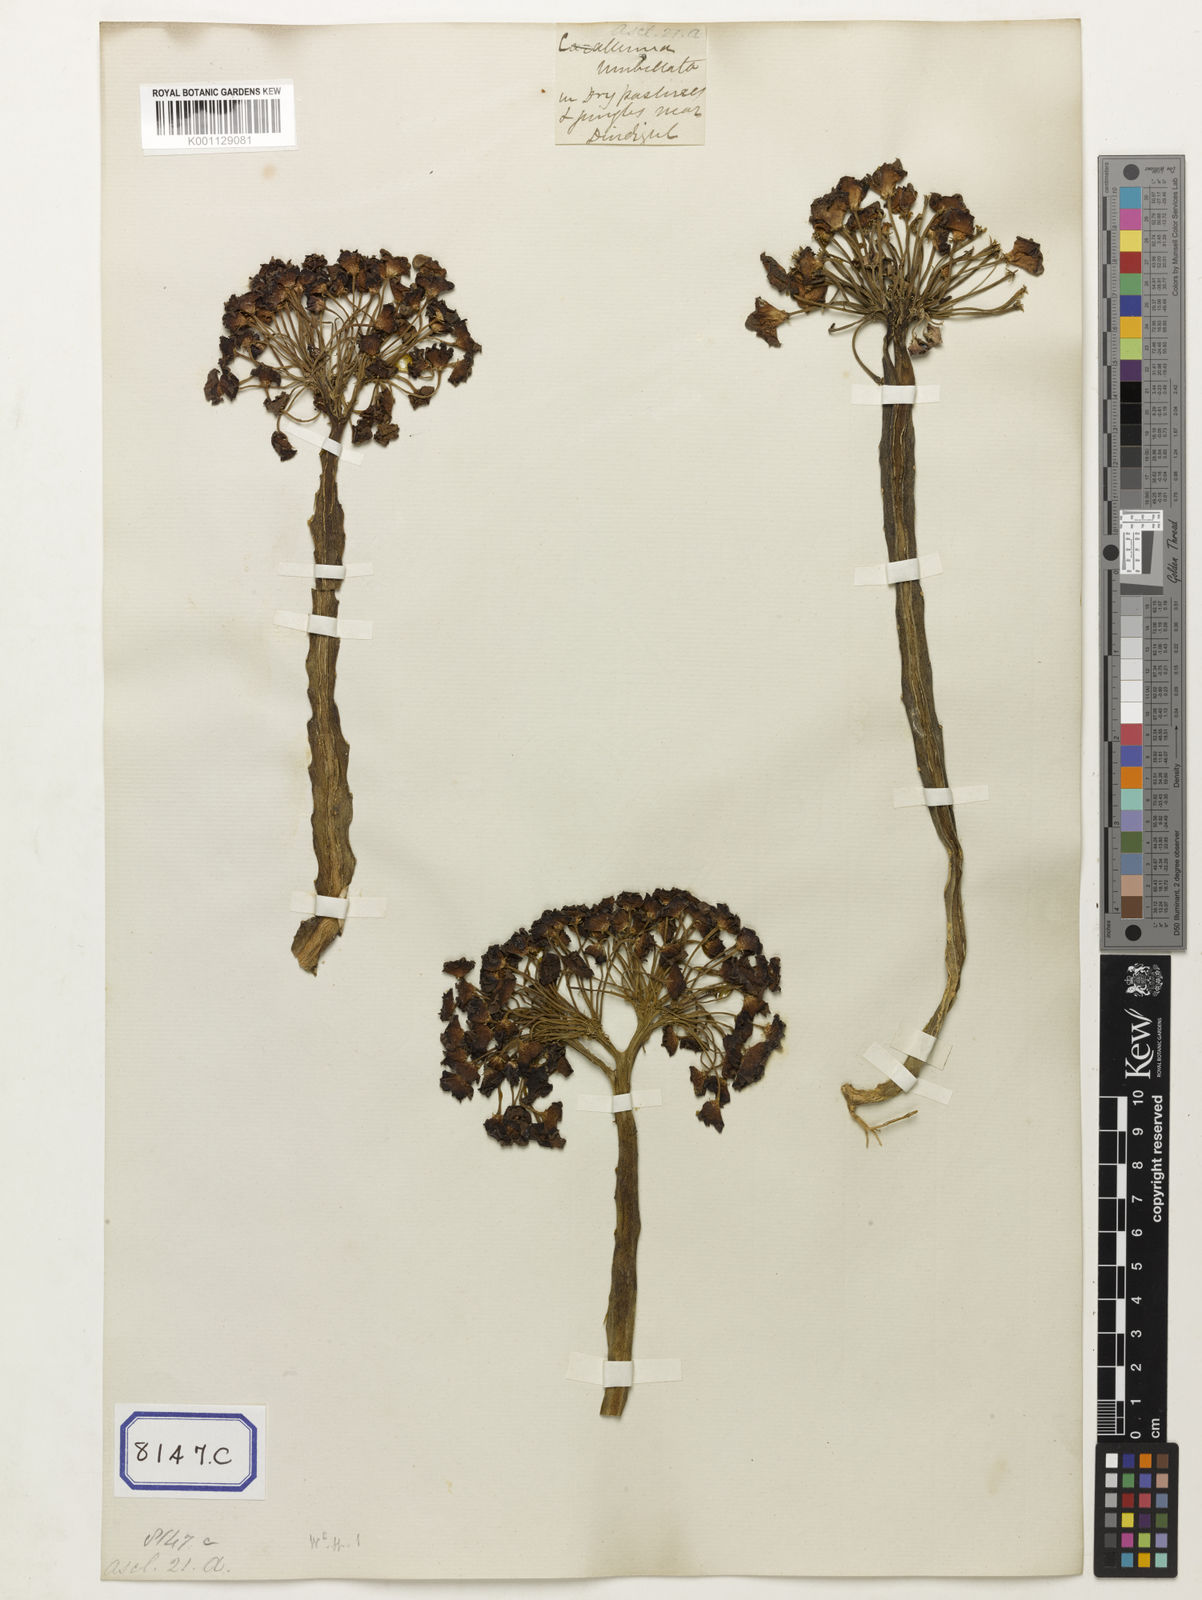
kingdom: Plantae
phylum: Tracheophyta
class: Magnoliopsida
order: Gentianales
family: Apocynaceae
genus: Ceropegia
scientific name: Ceropegia umbellata
